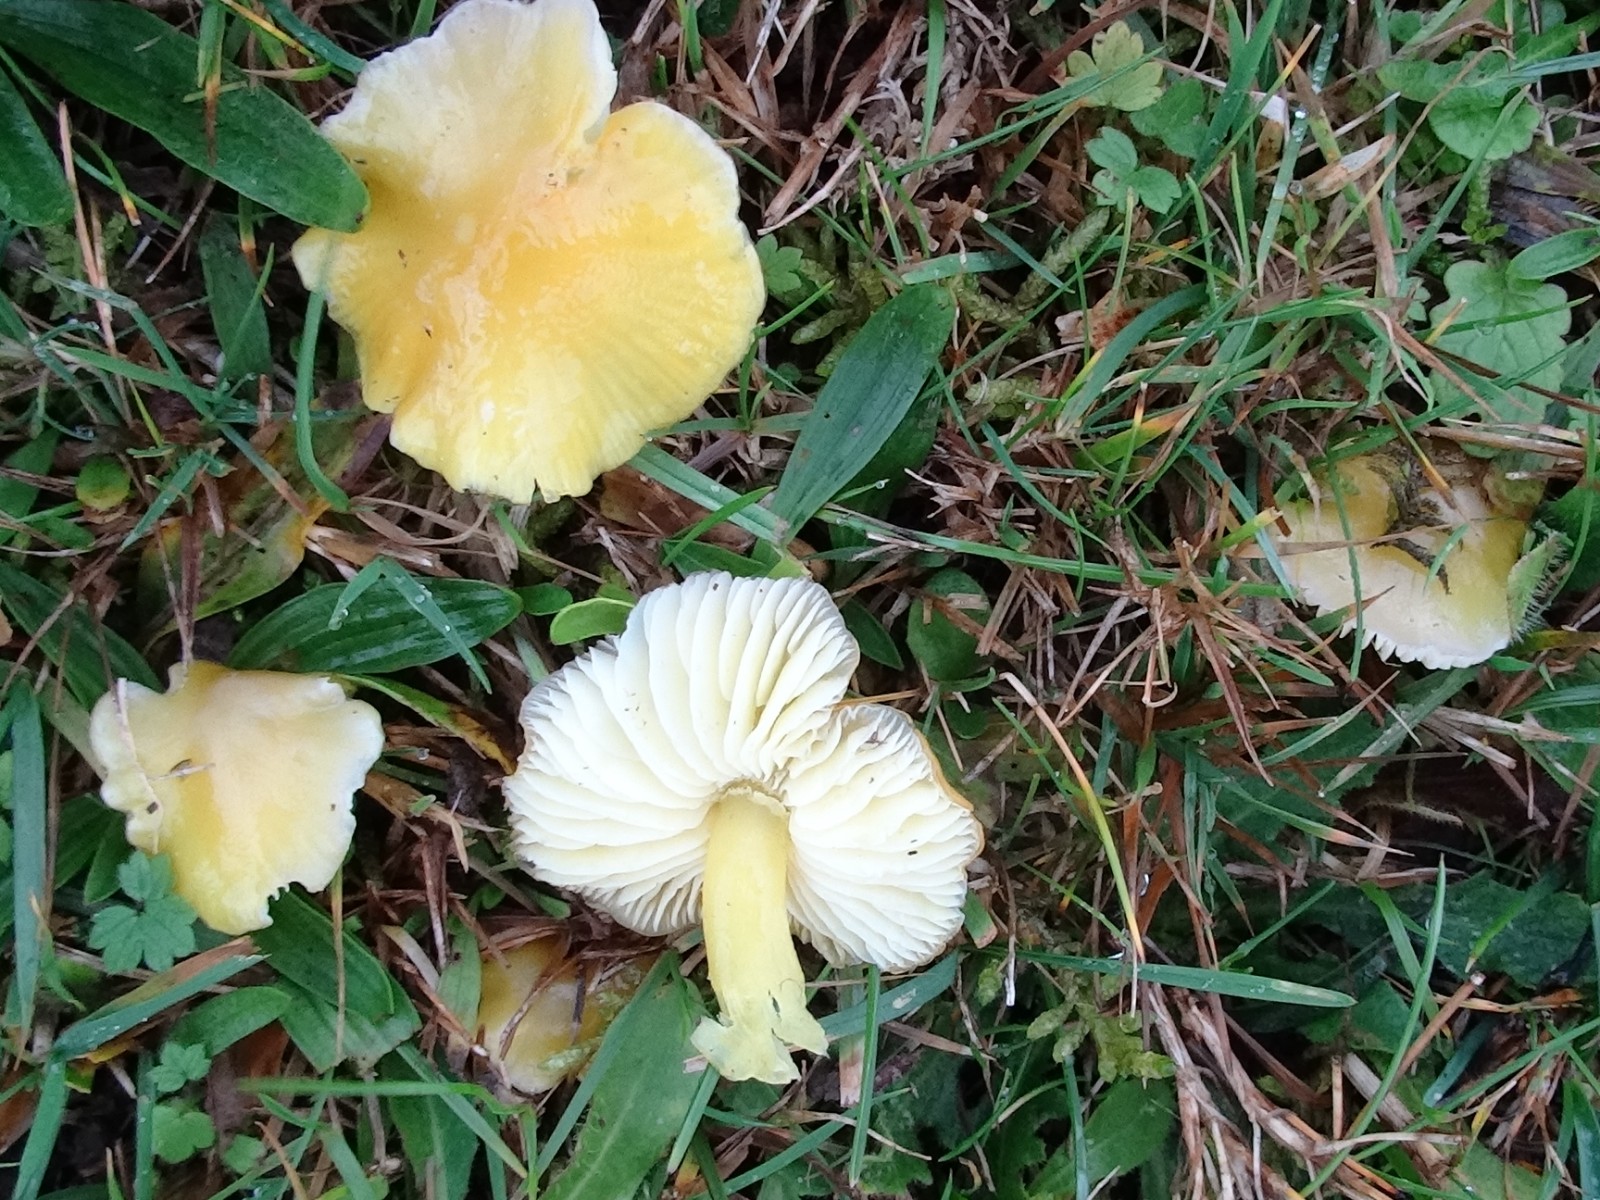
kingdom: Fungi
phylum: Basidiomycota
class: Agaricomycetes
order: Agaricales
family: Hygrophoraceae
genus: Hygrocybe
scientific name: Hygrocybe chlorophana
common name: gul vokshat
